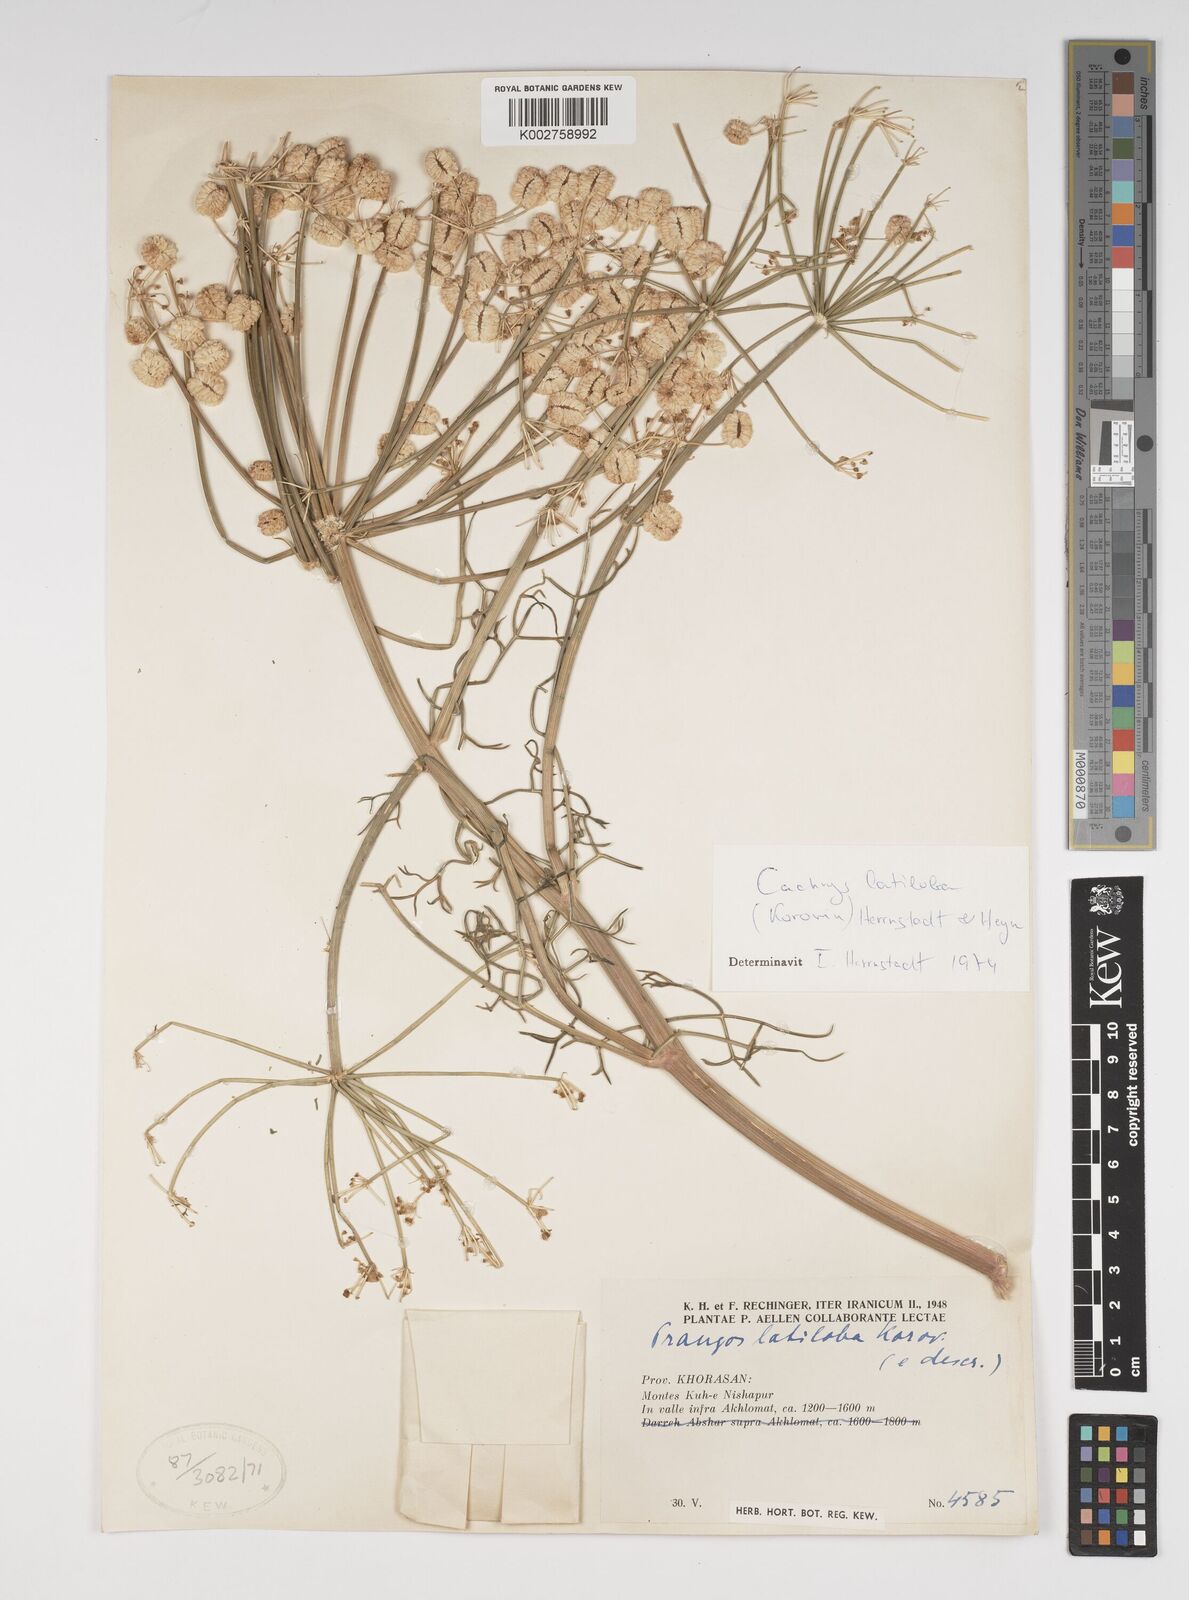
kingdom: Plantae
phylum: Tracheophyta
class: Magnoliopsida
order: Apiales
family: Apiaceae
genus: Prangos
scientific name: Prangos latiloba
